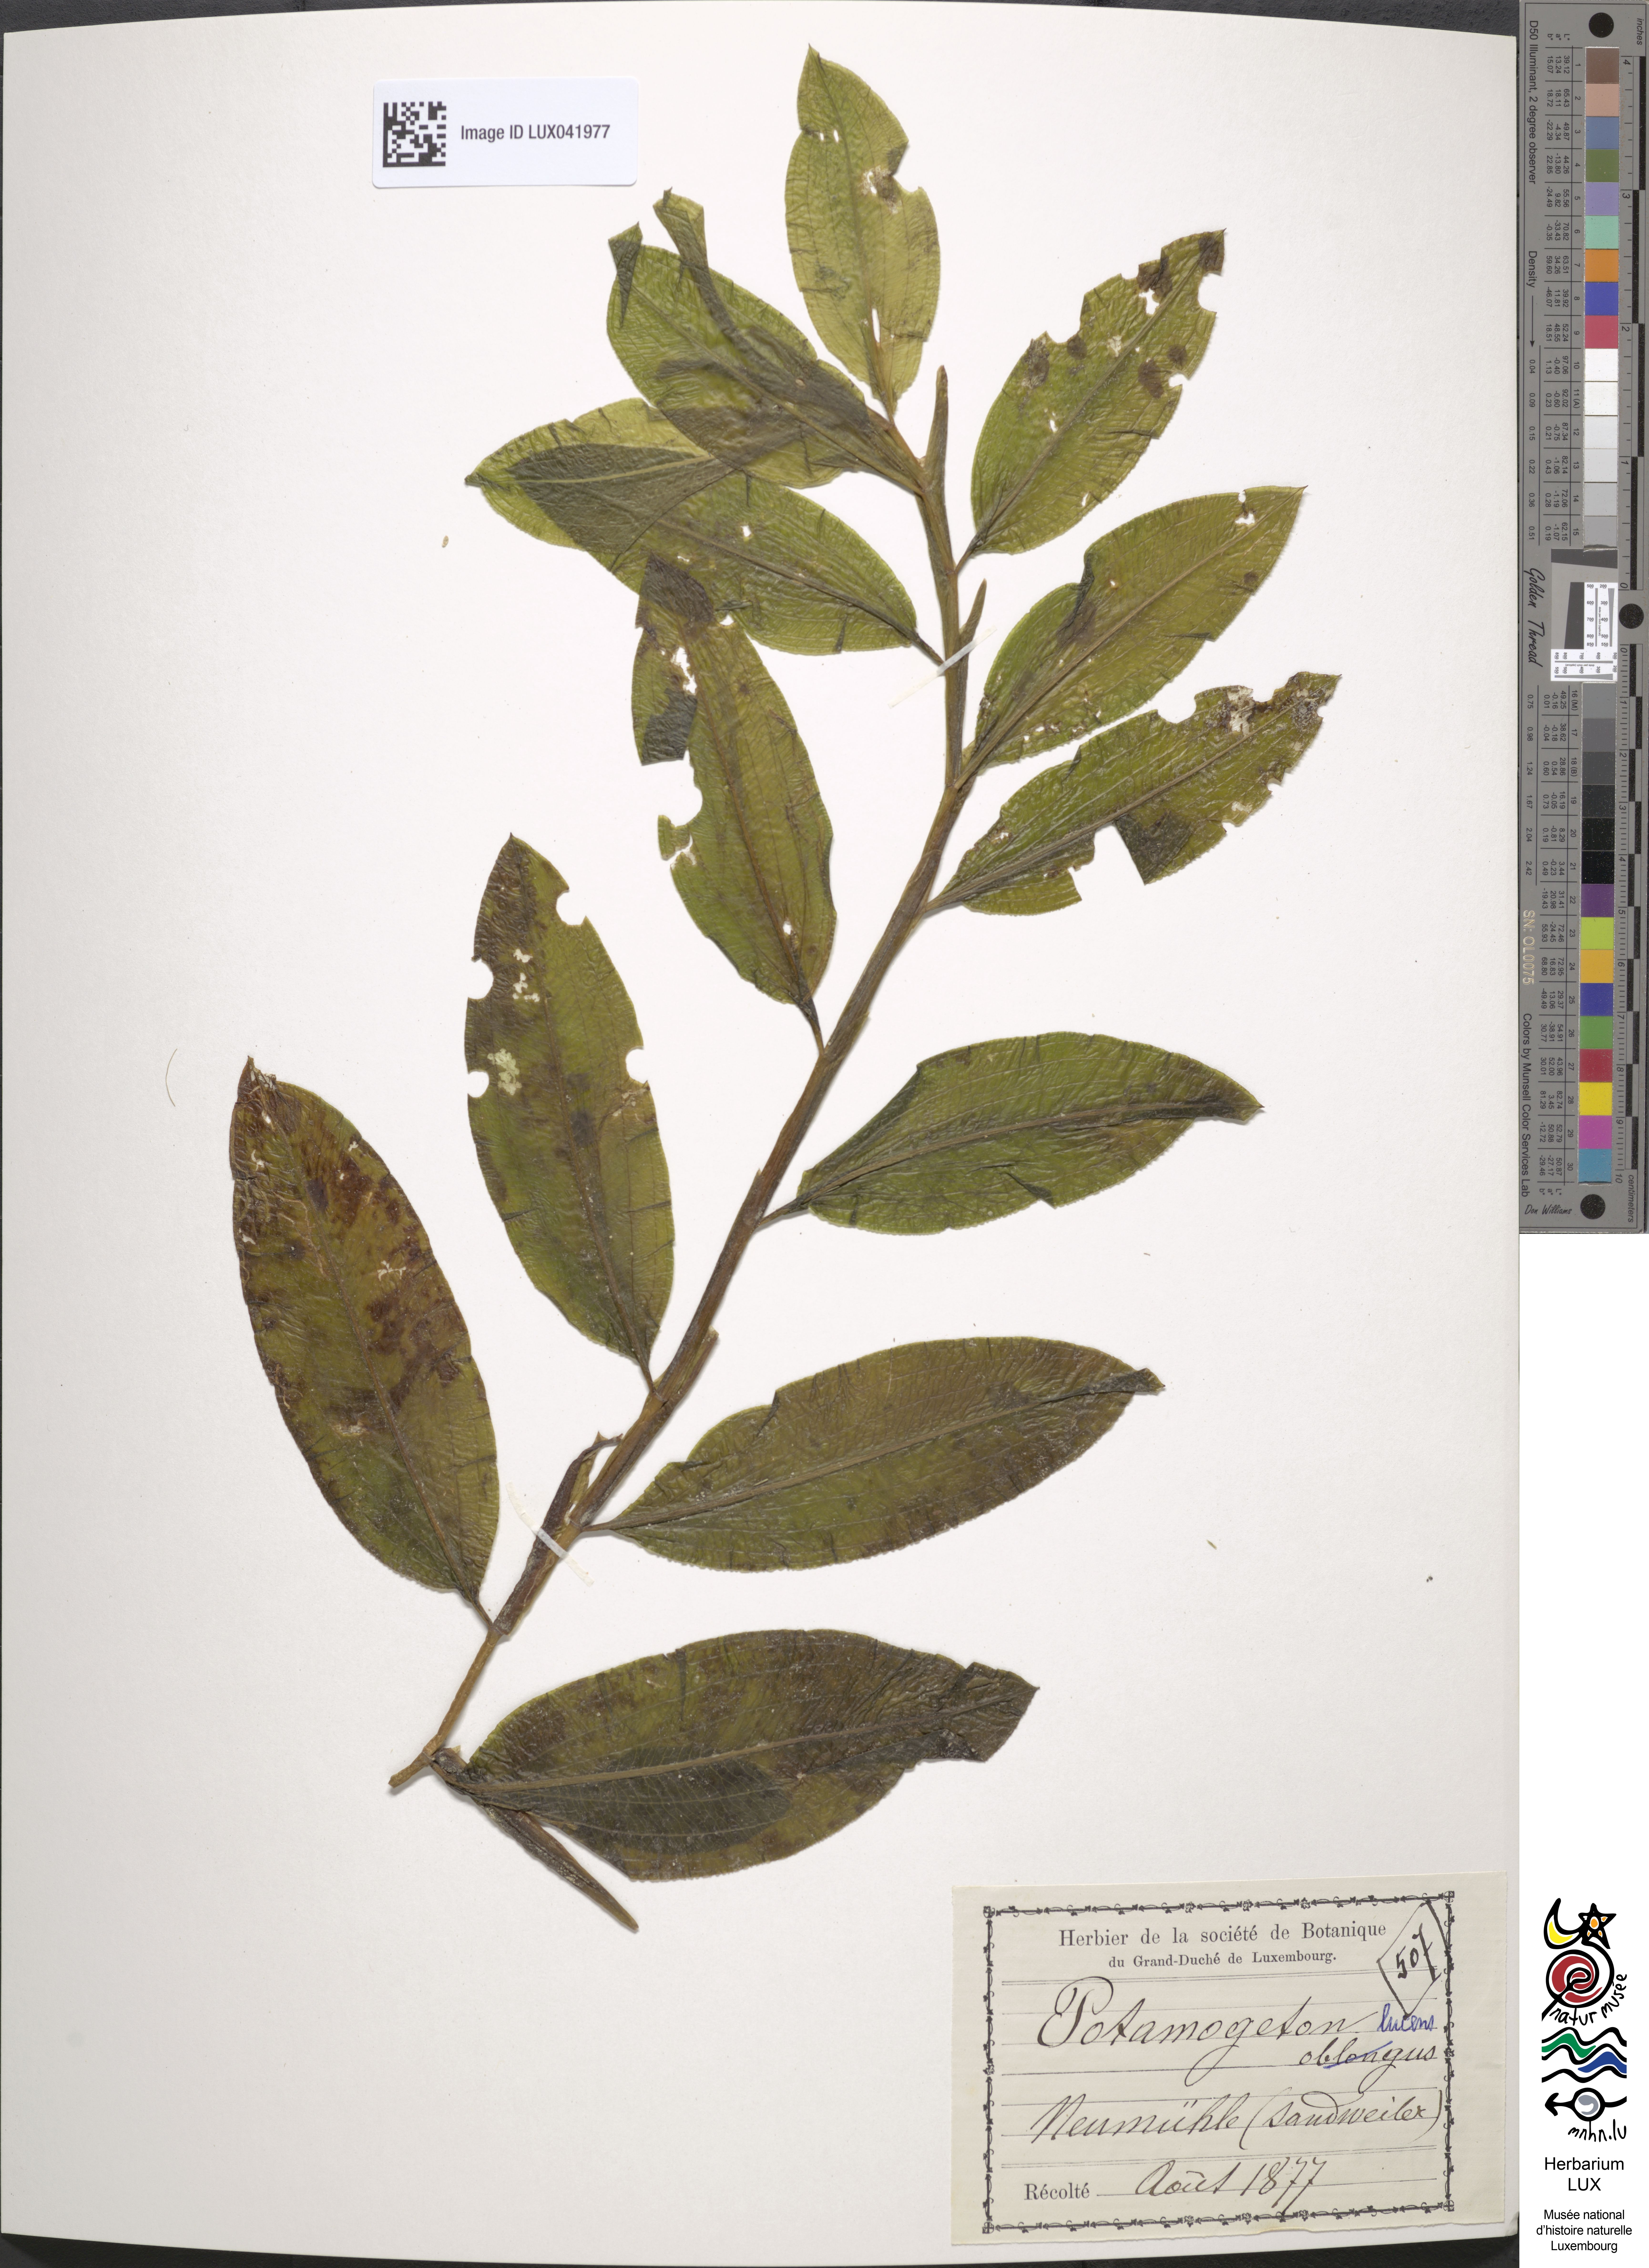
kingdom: Plantae
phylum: Tracheophyta
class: Liliopsida
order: Alismatales
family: Potamogetonaceae
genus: Potamogeton
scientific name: Potamogeton lucens
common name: Shining pondweed
